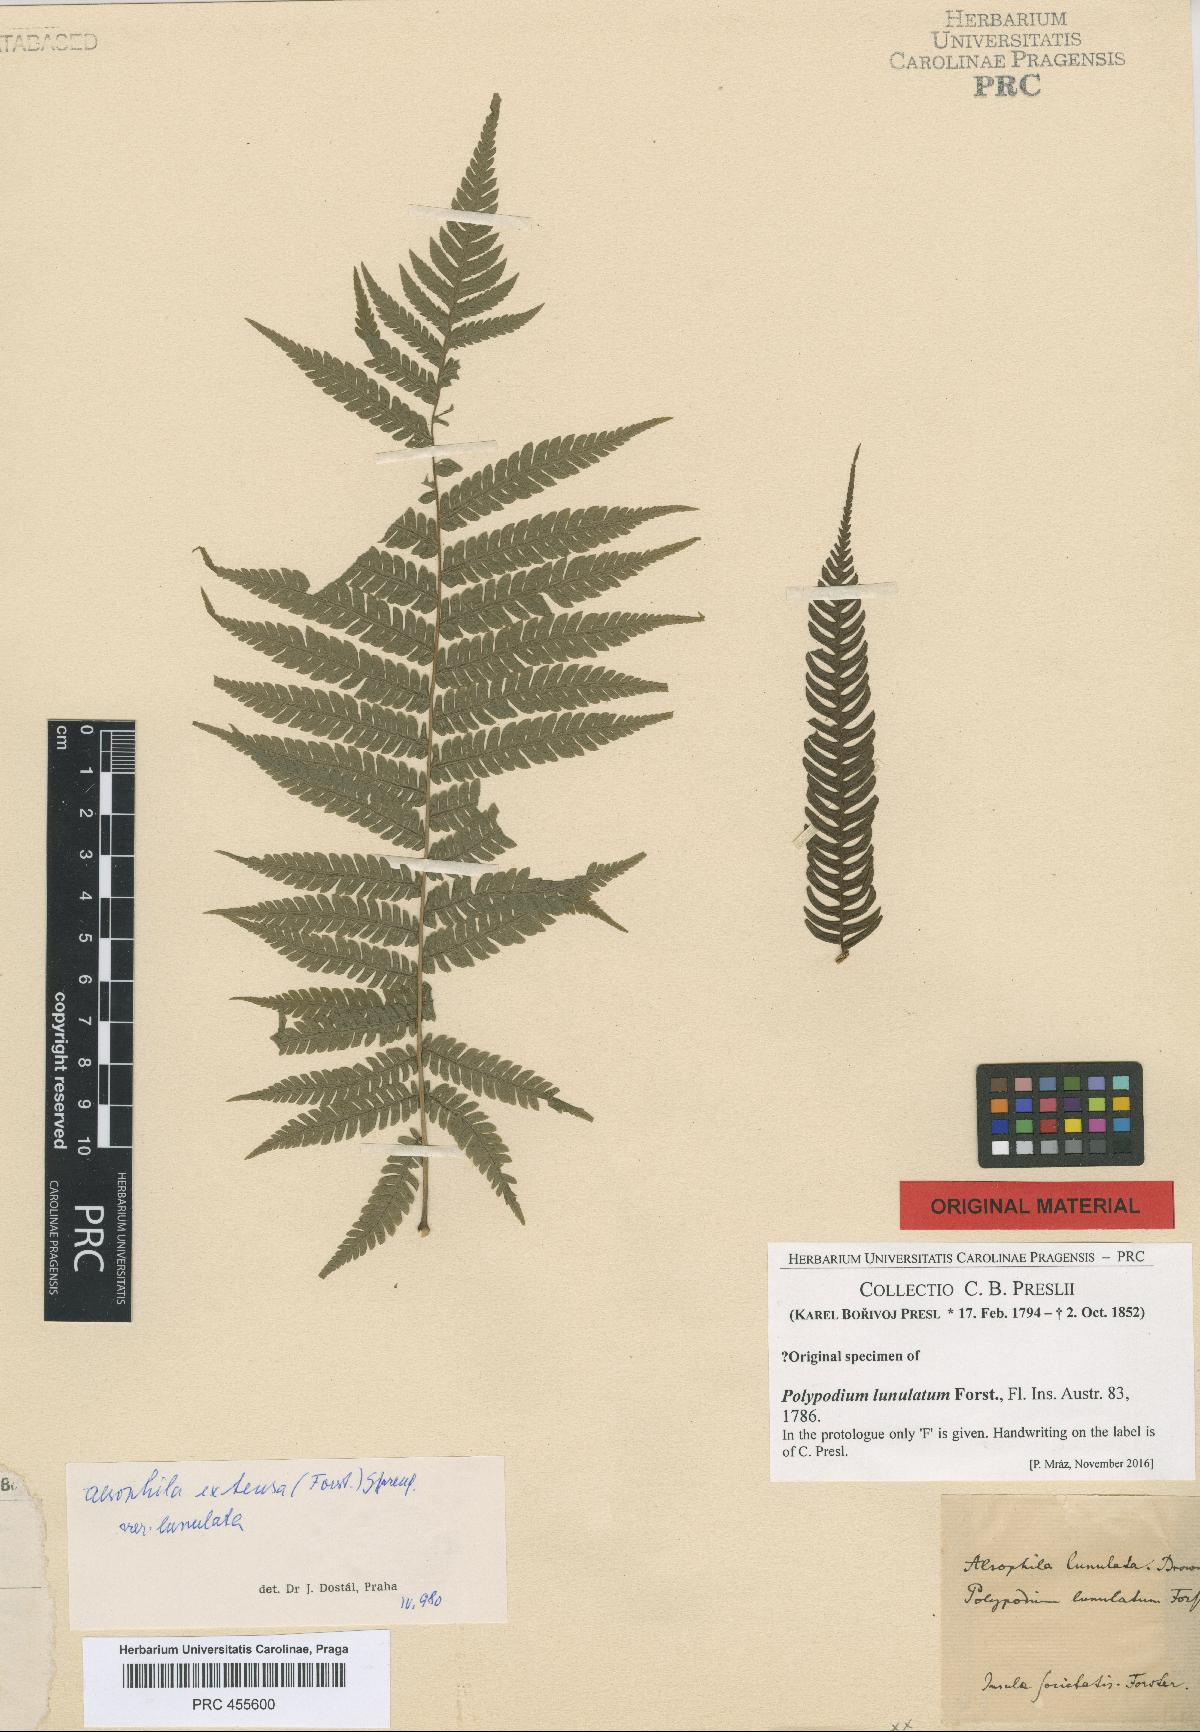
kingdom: Plantae
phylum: Tracheophyta
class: Polypodiopsida
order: Cyatheales
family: Cyatheaceae
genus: Sphaeropteris
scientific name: Sphaeropteris lunulata
